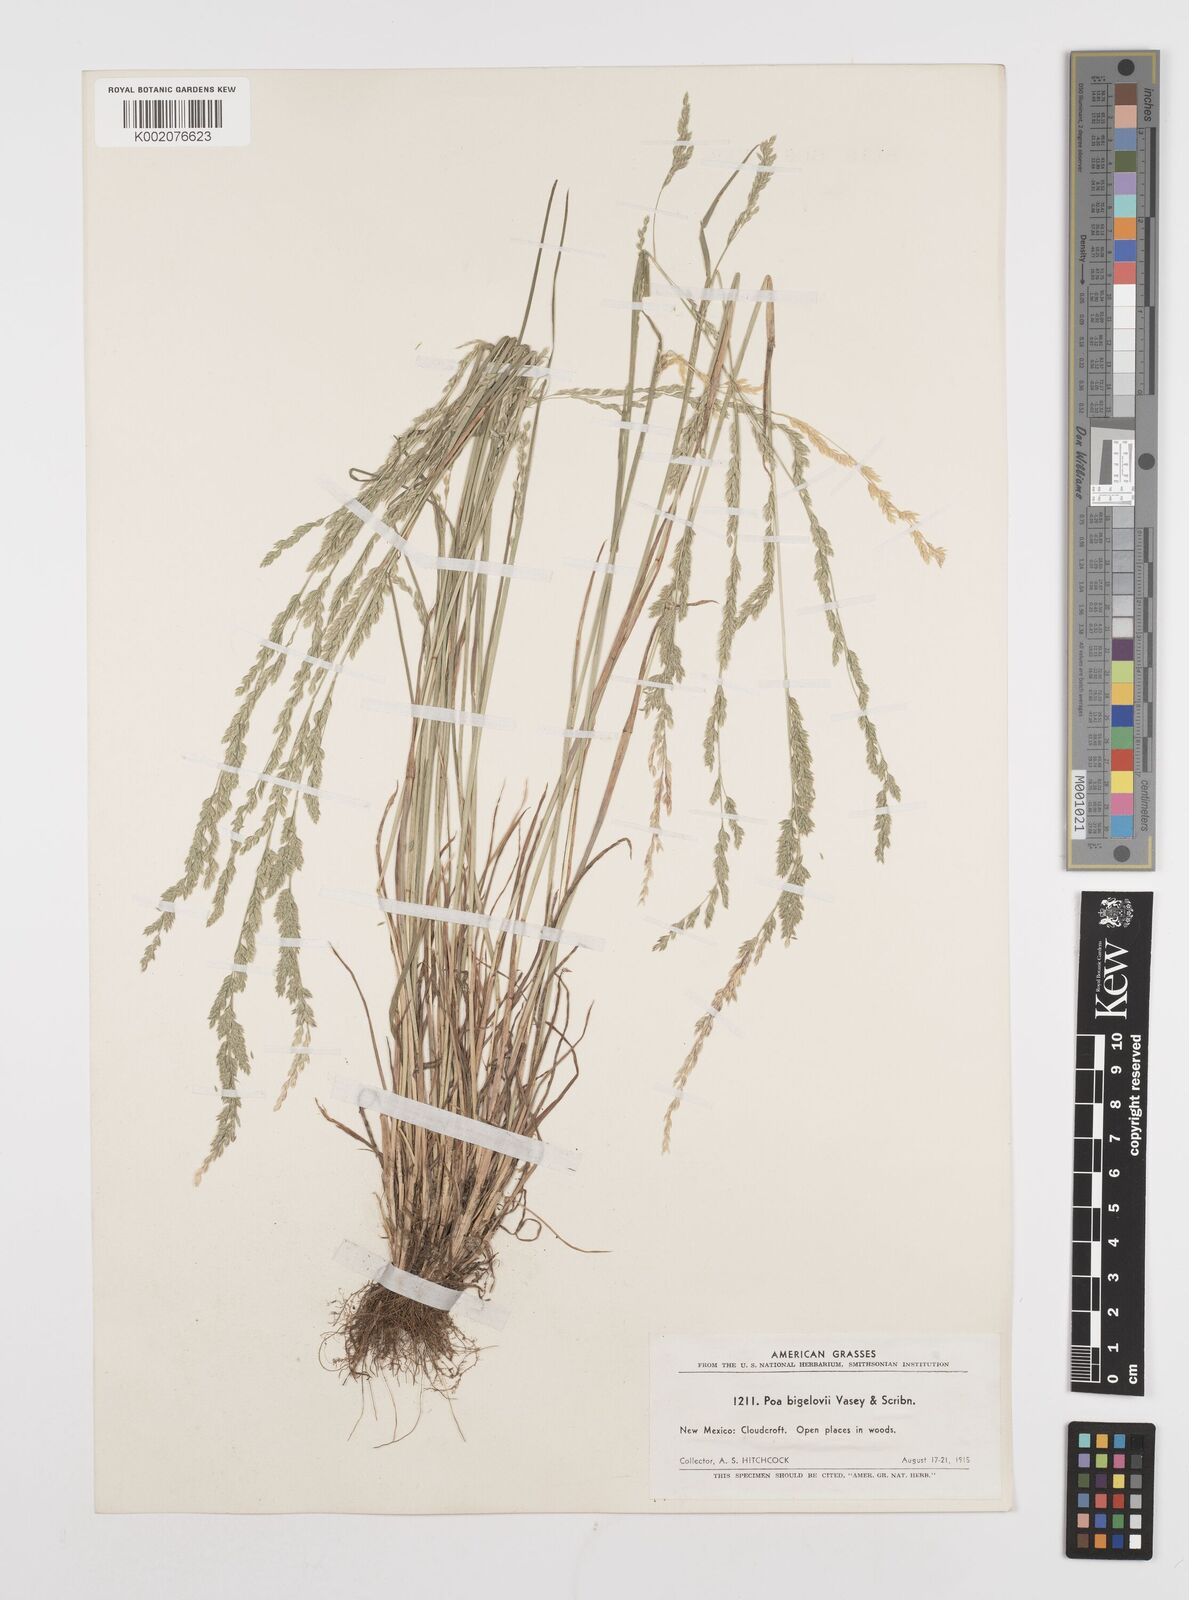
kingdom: Plantae
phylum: Tracheophyta
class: Liliopsida
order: Poales
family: Poaceae
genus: Poa
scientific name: Poa bigelovii
